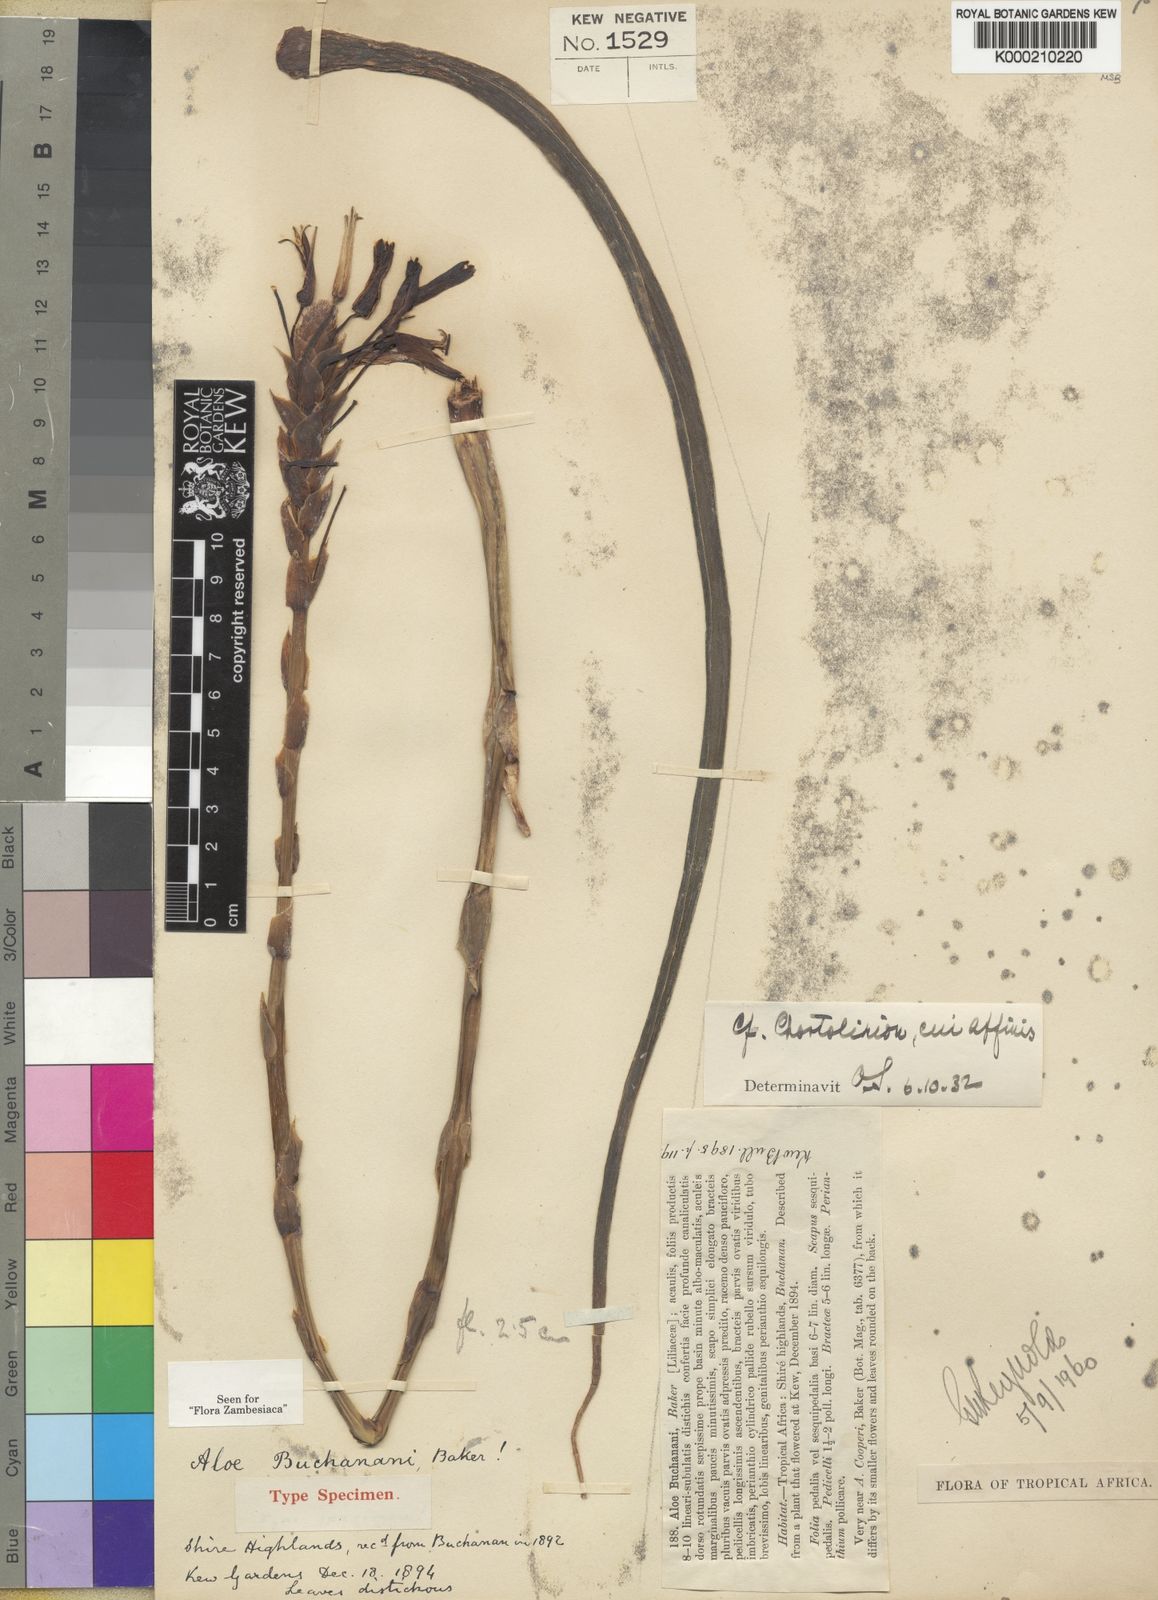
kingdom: Plantae
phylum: Tracheophyta
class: Liliopsida
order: Asparagales
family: Asphodelaceae
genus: Aloe
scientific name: Aloe buchananii
